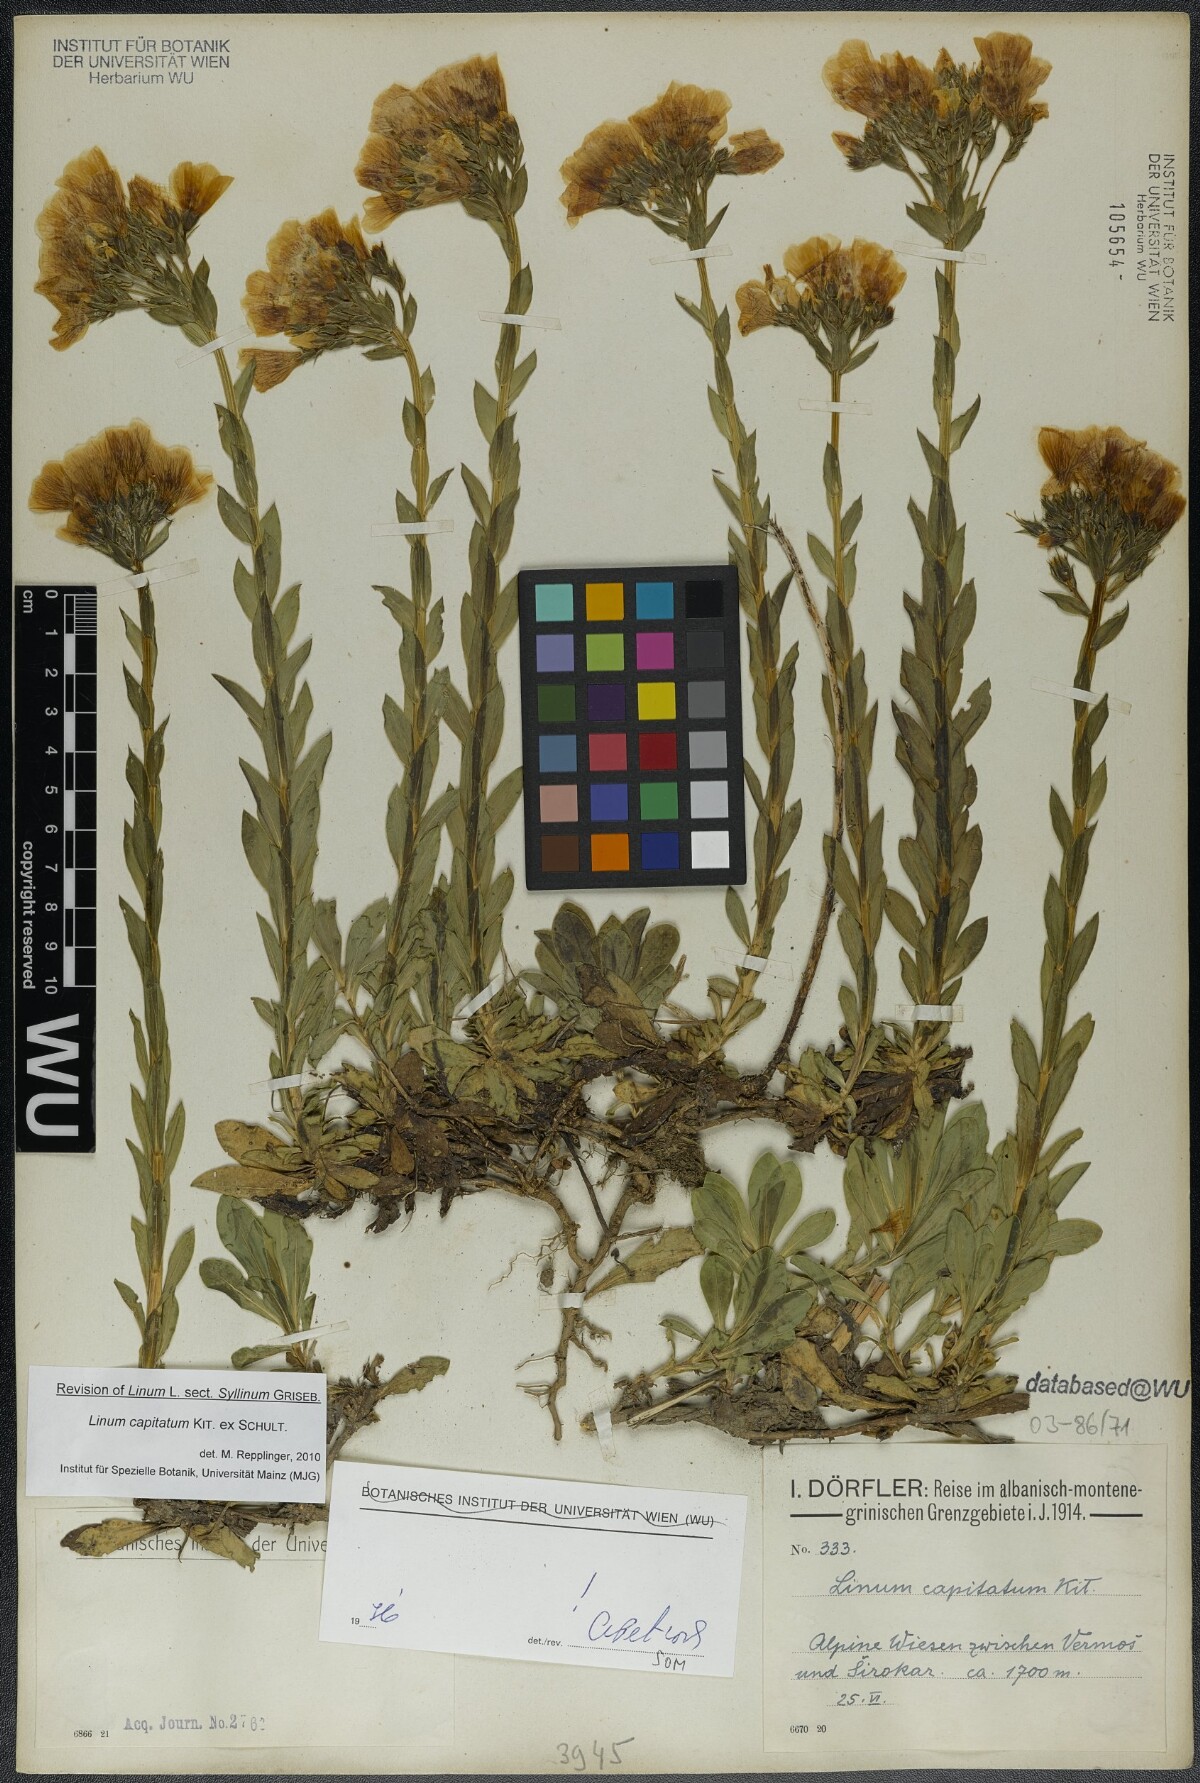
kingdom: Plantae
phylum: Tracheophyta
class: Magnoliopsida
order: Malpighiales
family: Linaceae
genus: Linum
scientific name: Linum capitatum
